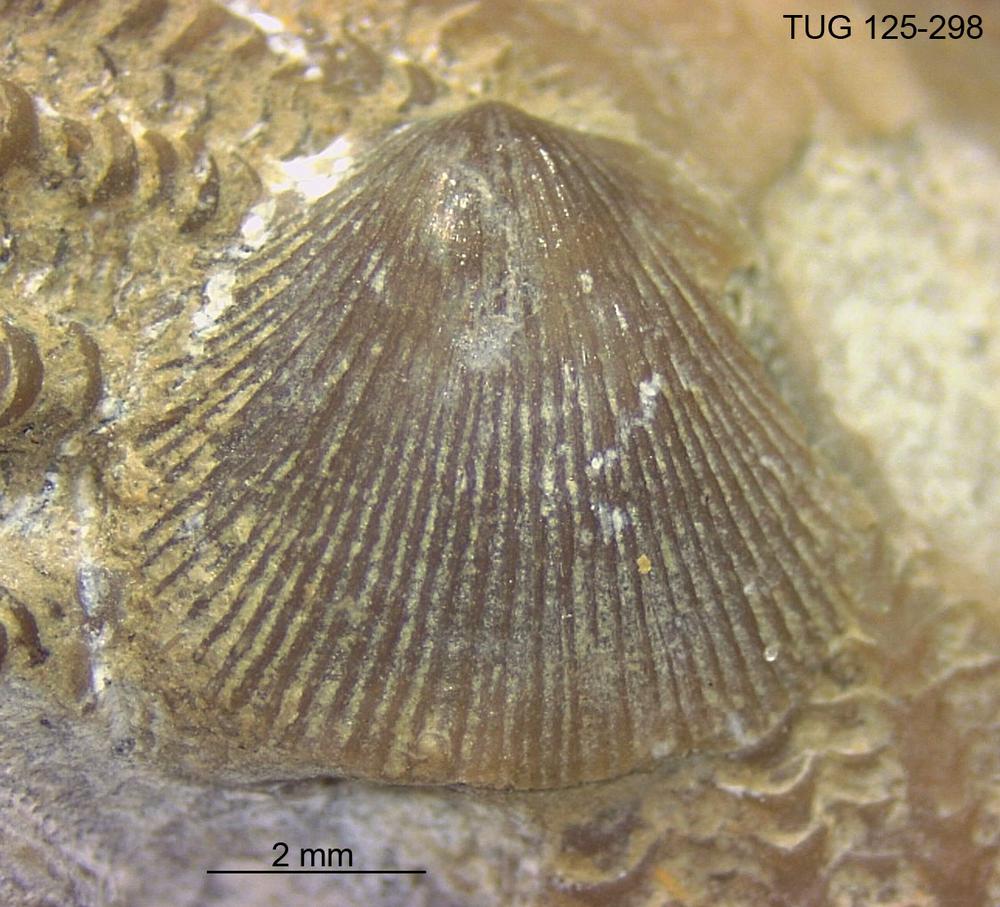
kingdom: Animalia
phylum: Brachiopoda
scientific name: Brachiopoda
